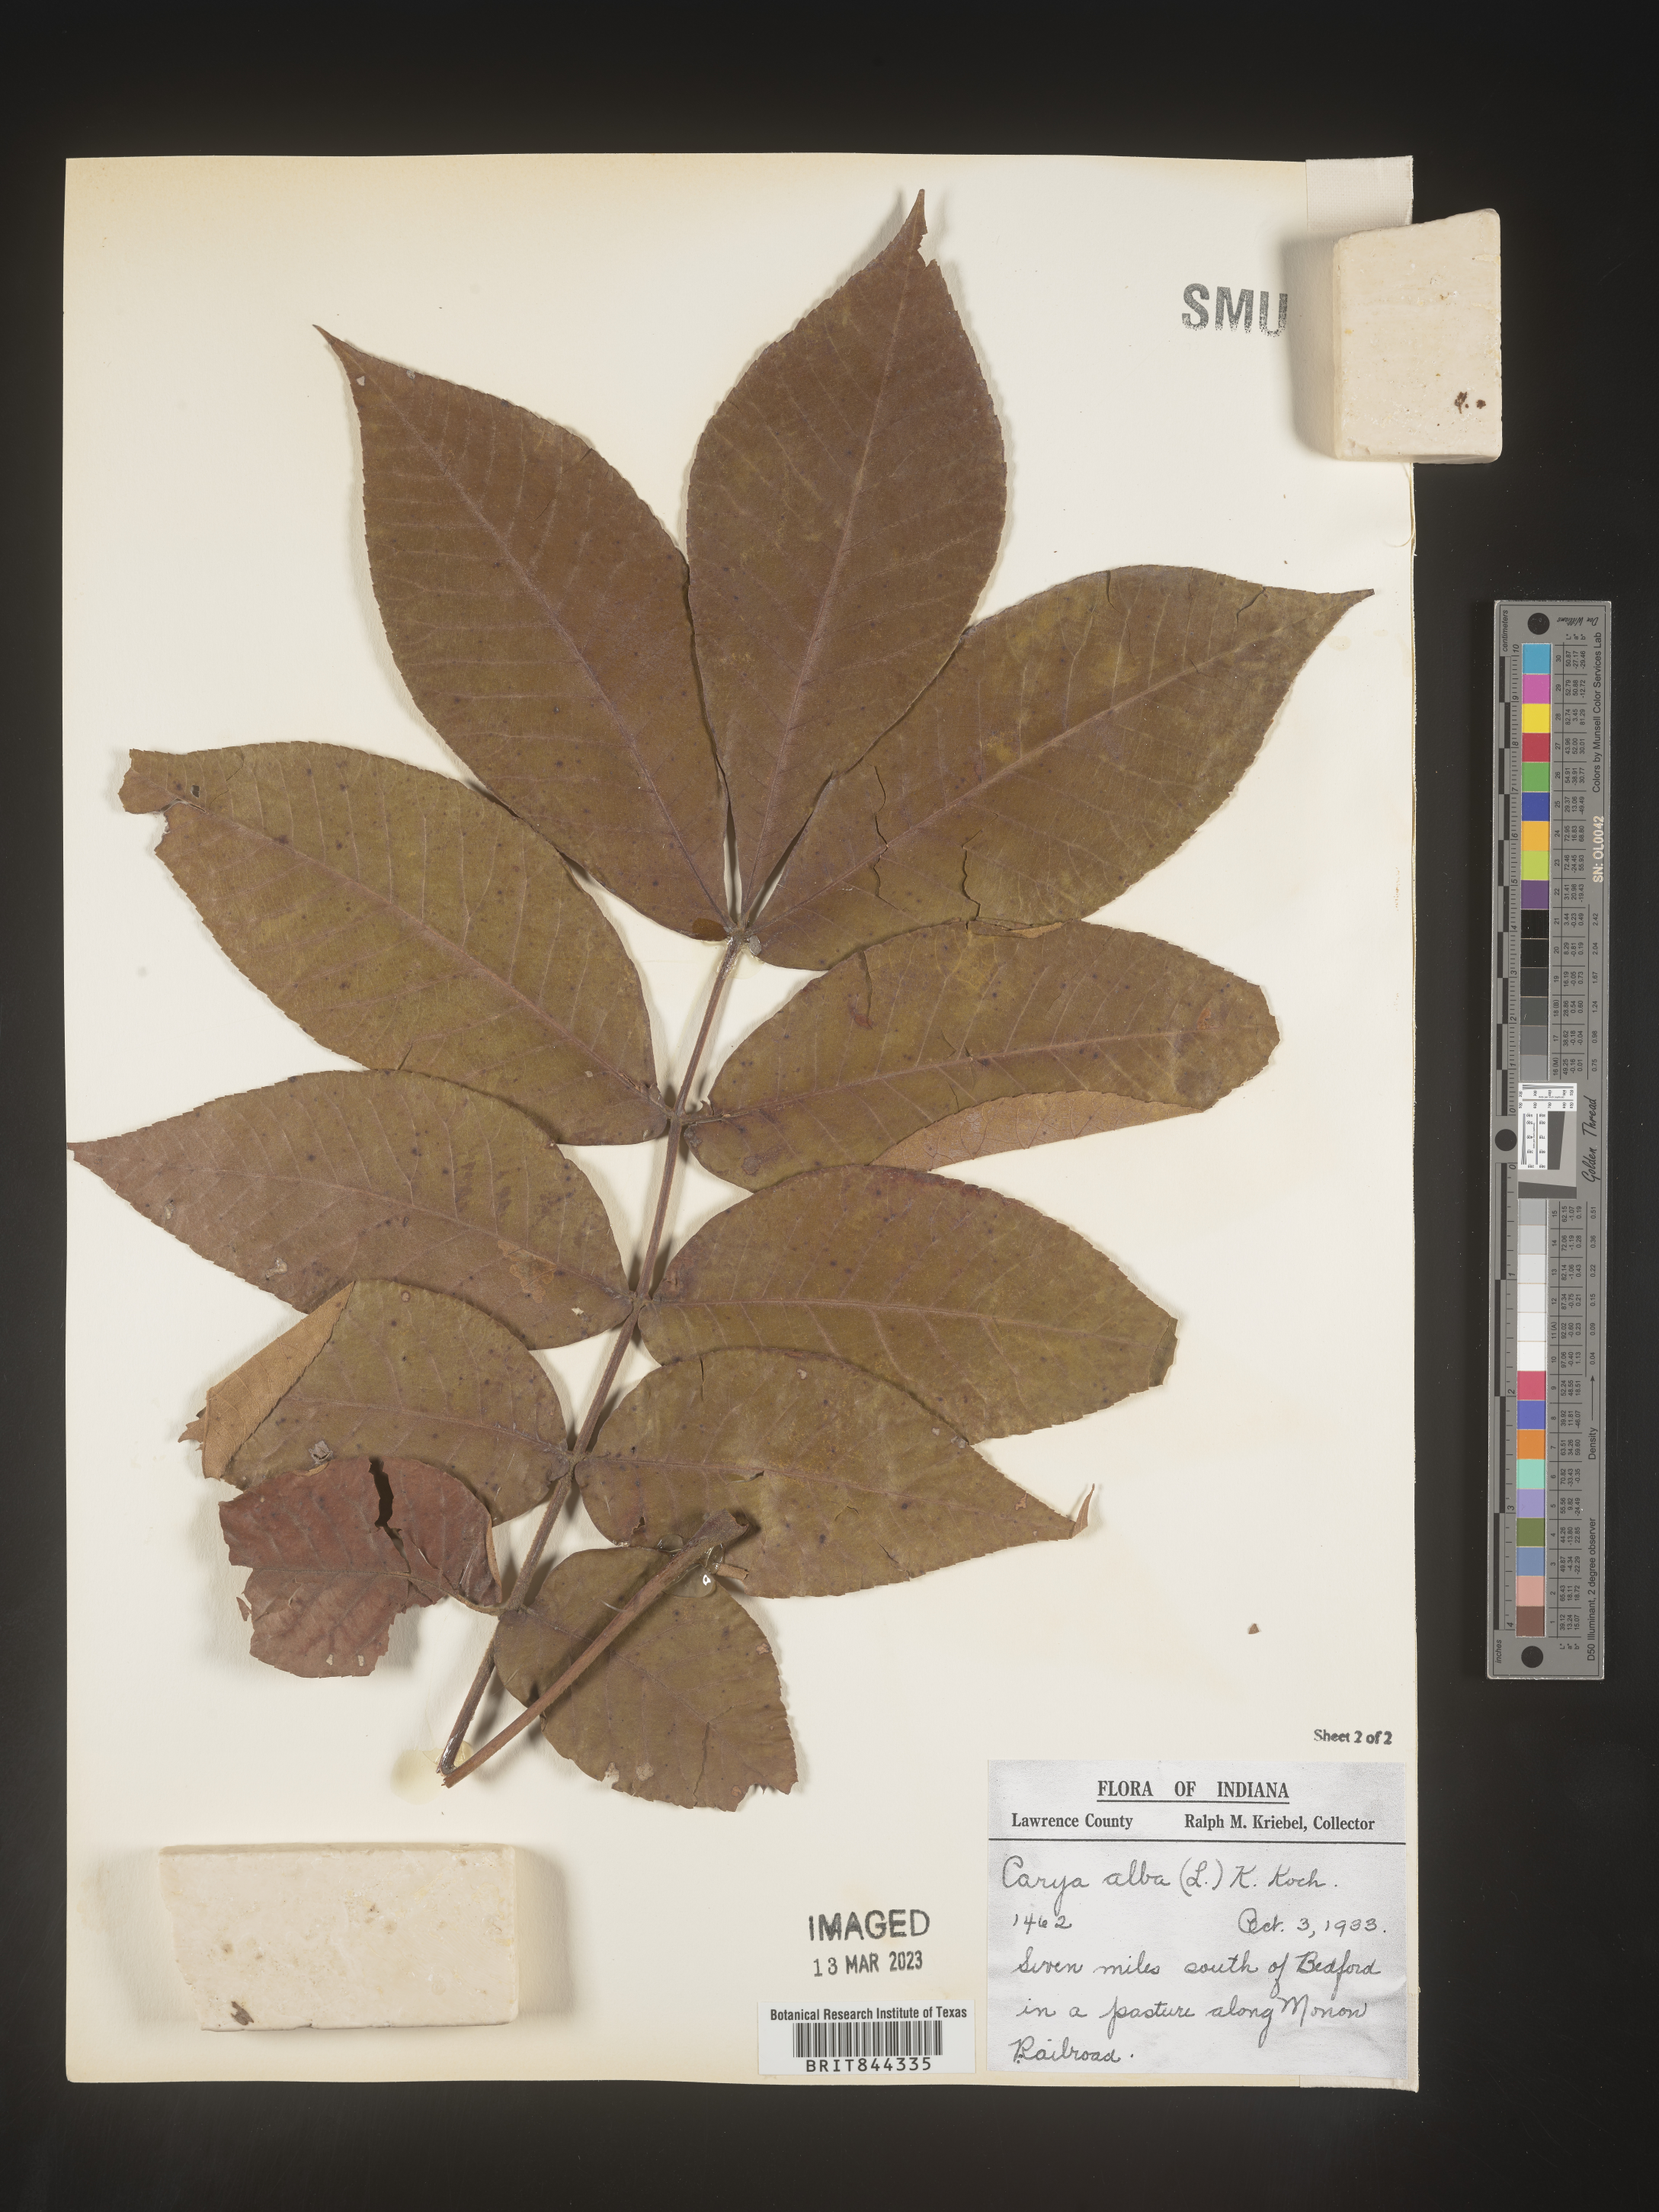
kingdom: Plantae
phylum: Tracheophyta
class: Magnoliopsida
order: Fagales
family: Juglandaceae
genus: Carya
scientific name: Carya alba
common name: Mockernut hickory
